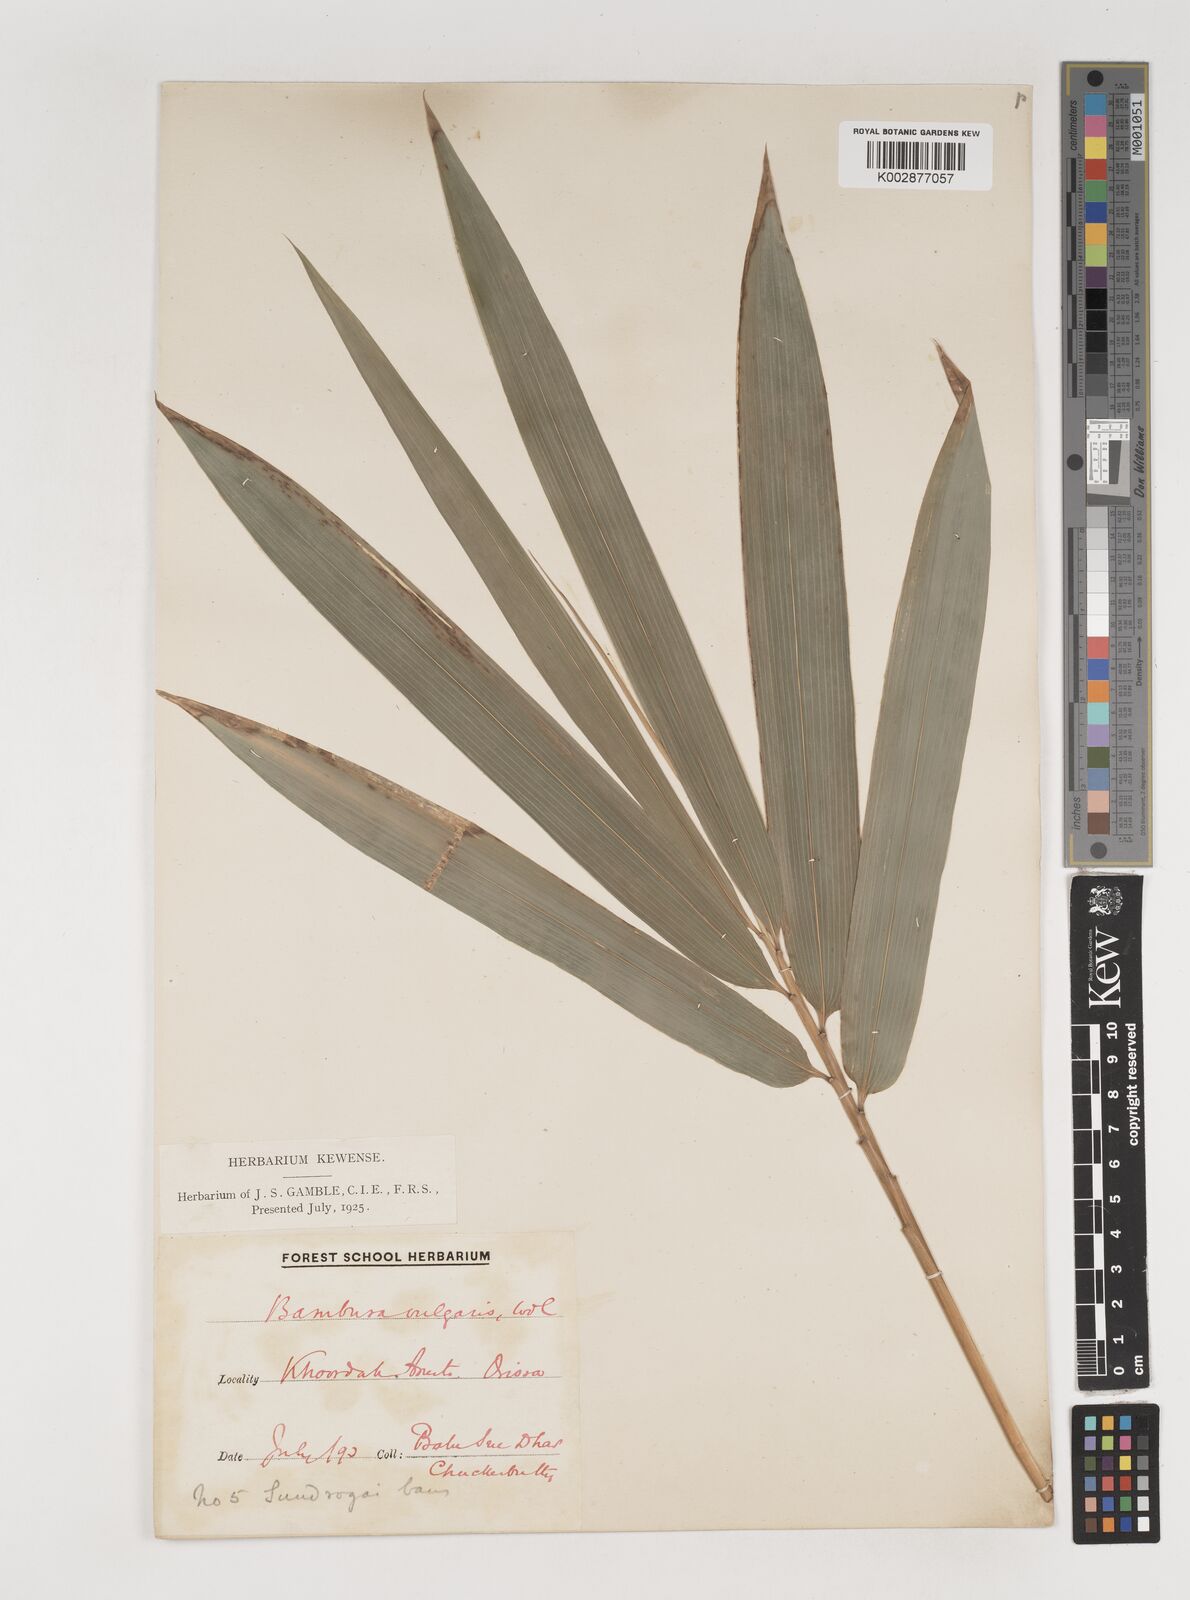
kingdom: Plantae
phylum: Tracheophyta
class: Liliopsida
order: Poales
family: Poaceae
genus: Bambusa
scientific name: Bambusa vulgaris
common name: Common bamboo
